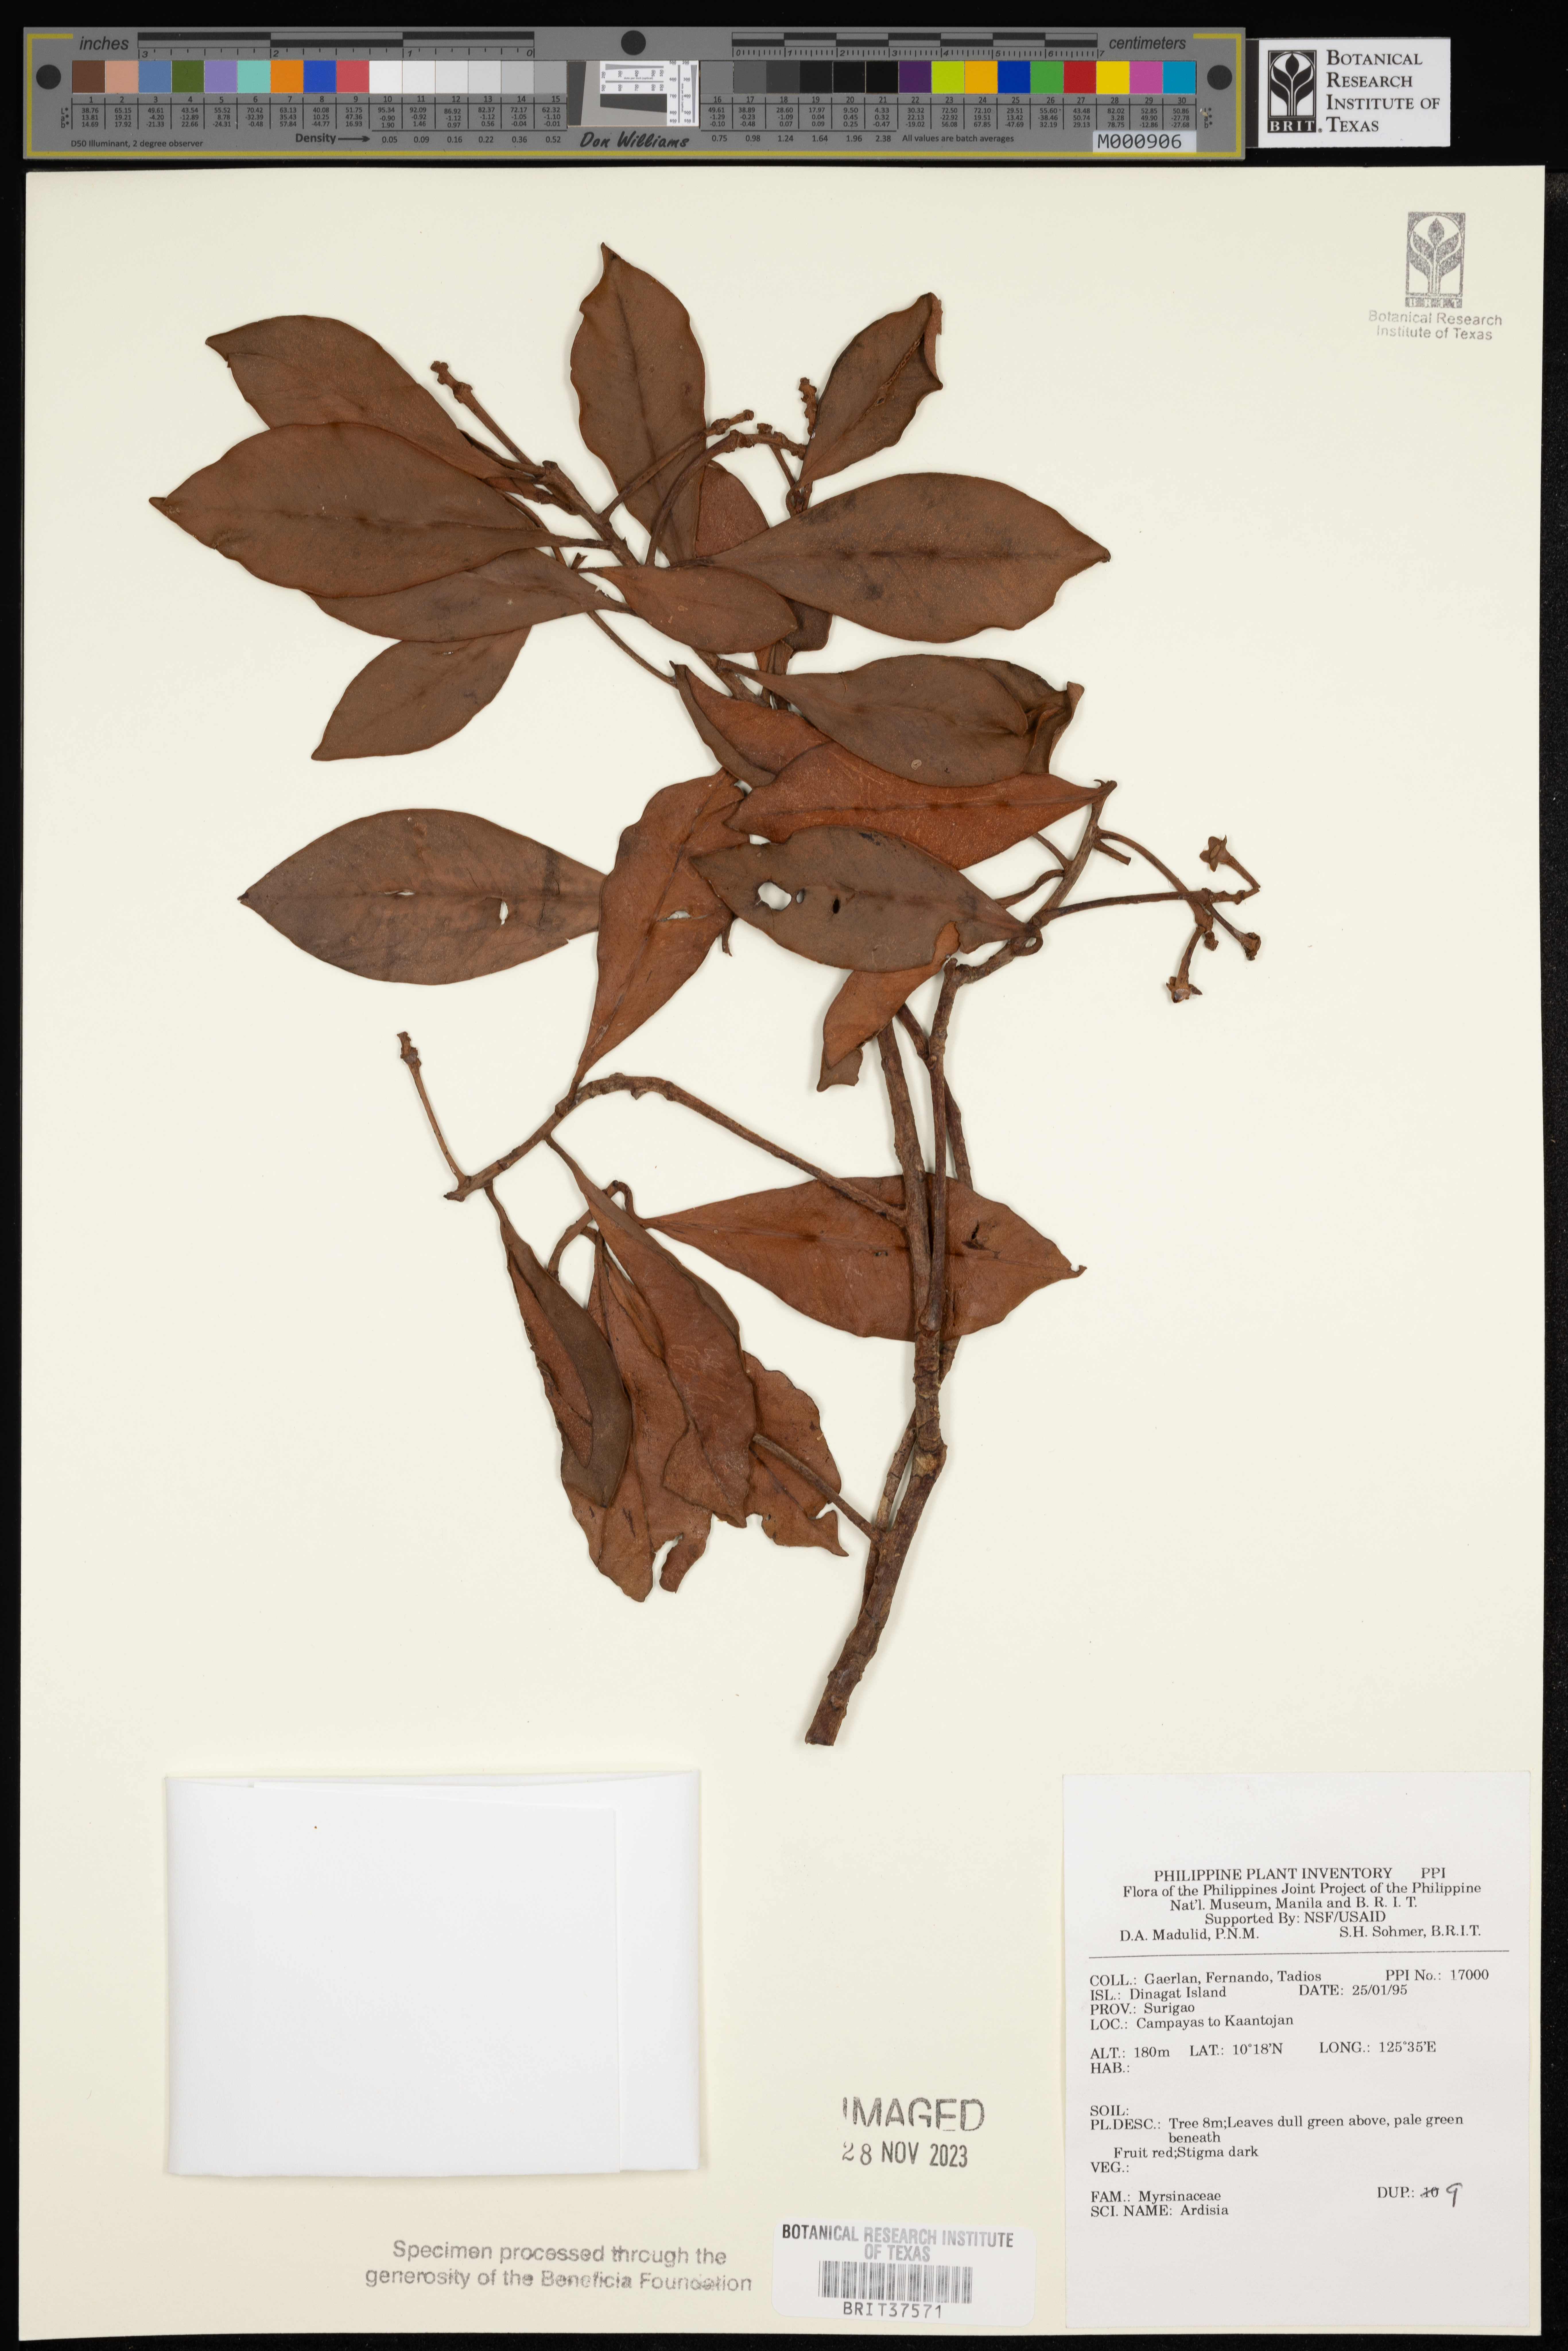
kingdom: Plantae
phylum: Tracheophyta
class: Magnoliopsida
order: Ericales
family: Primulaceae
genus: Ardisia
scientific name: Ardisia
